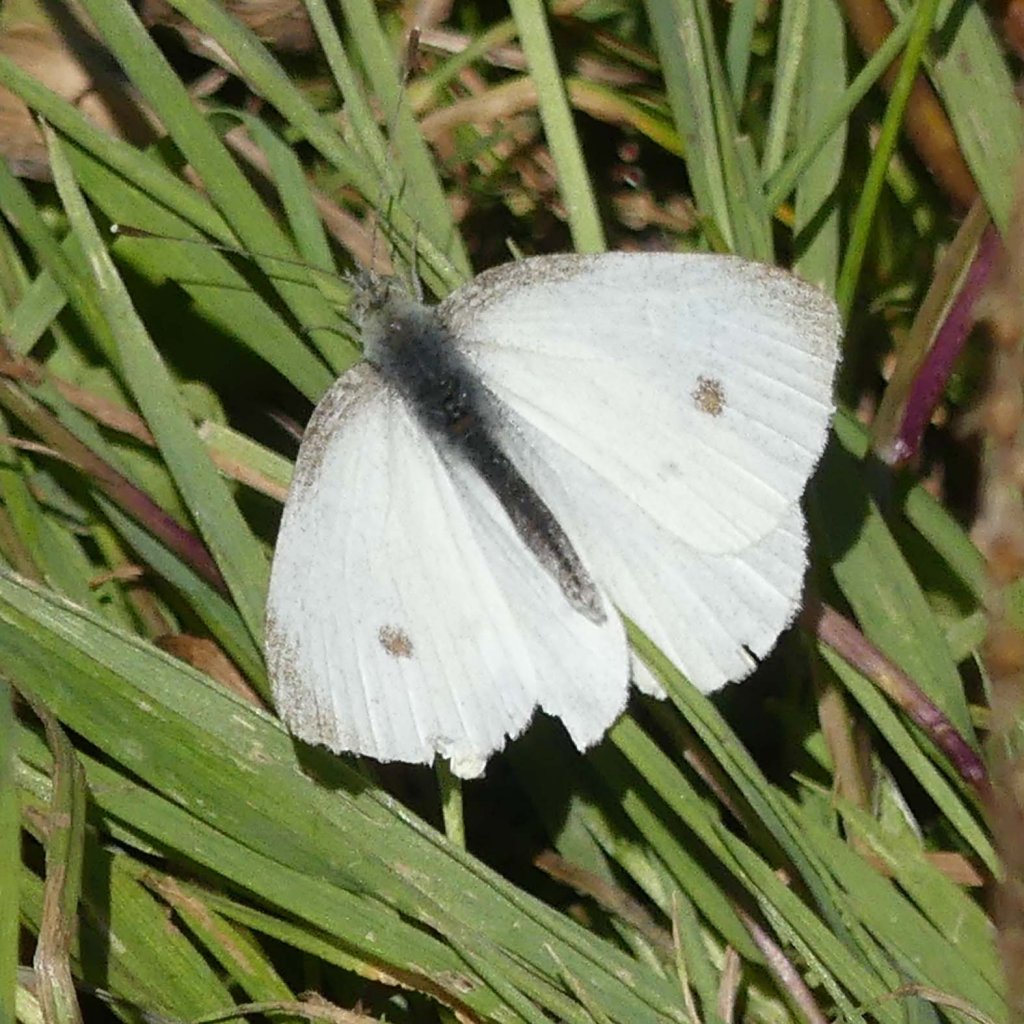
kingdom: Animalia
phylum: Arthropoda
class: Insecta
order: Lepidoptera
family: Pieridae
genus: Pieris
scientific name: Pieris rapae
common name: Cabbage White
